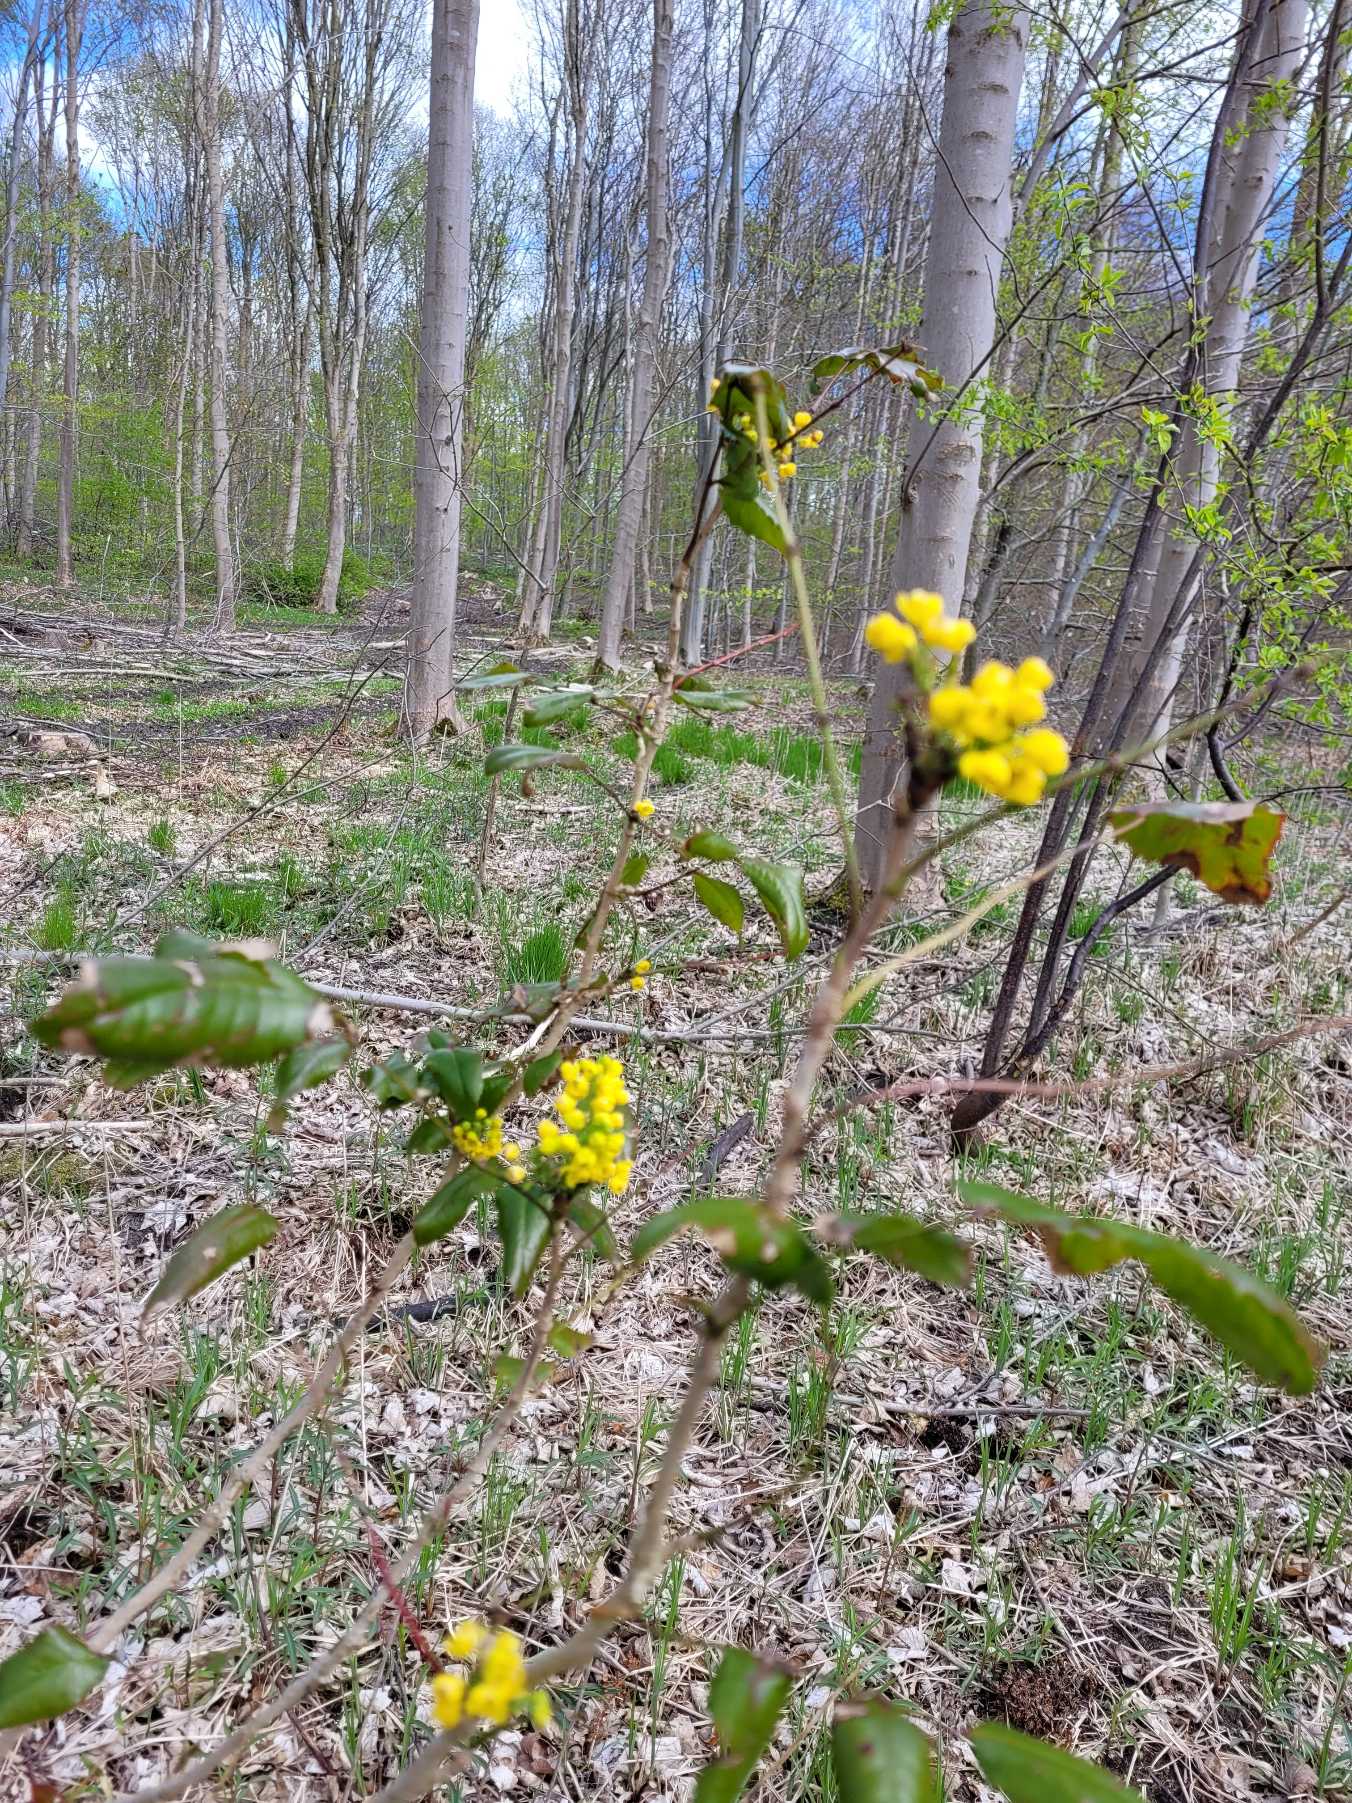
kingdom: Plantae
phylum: Tracheophyta
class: Magnoliopsida
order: Ranunculales
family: Berberidaceae
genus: Mahonia
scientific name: Mahonia aquifolium
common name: Almindelig mahonie
